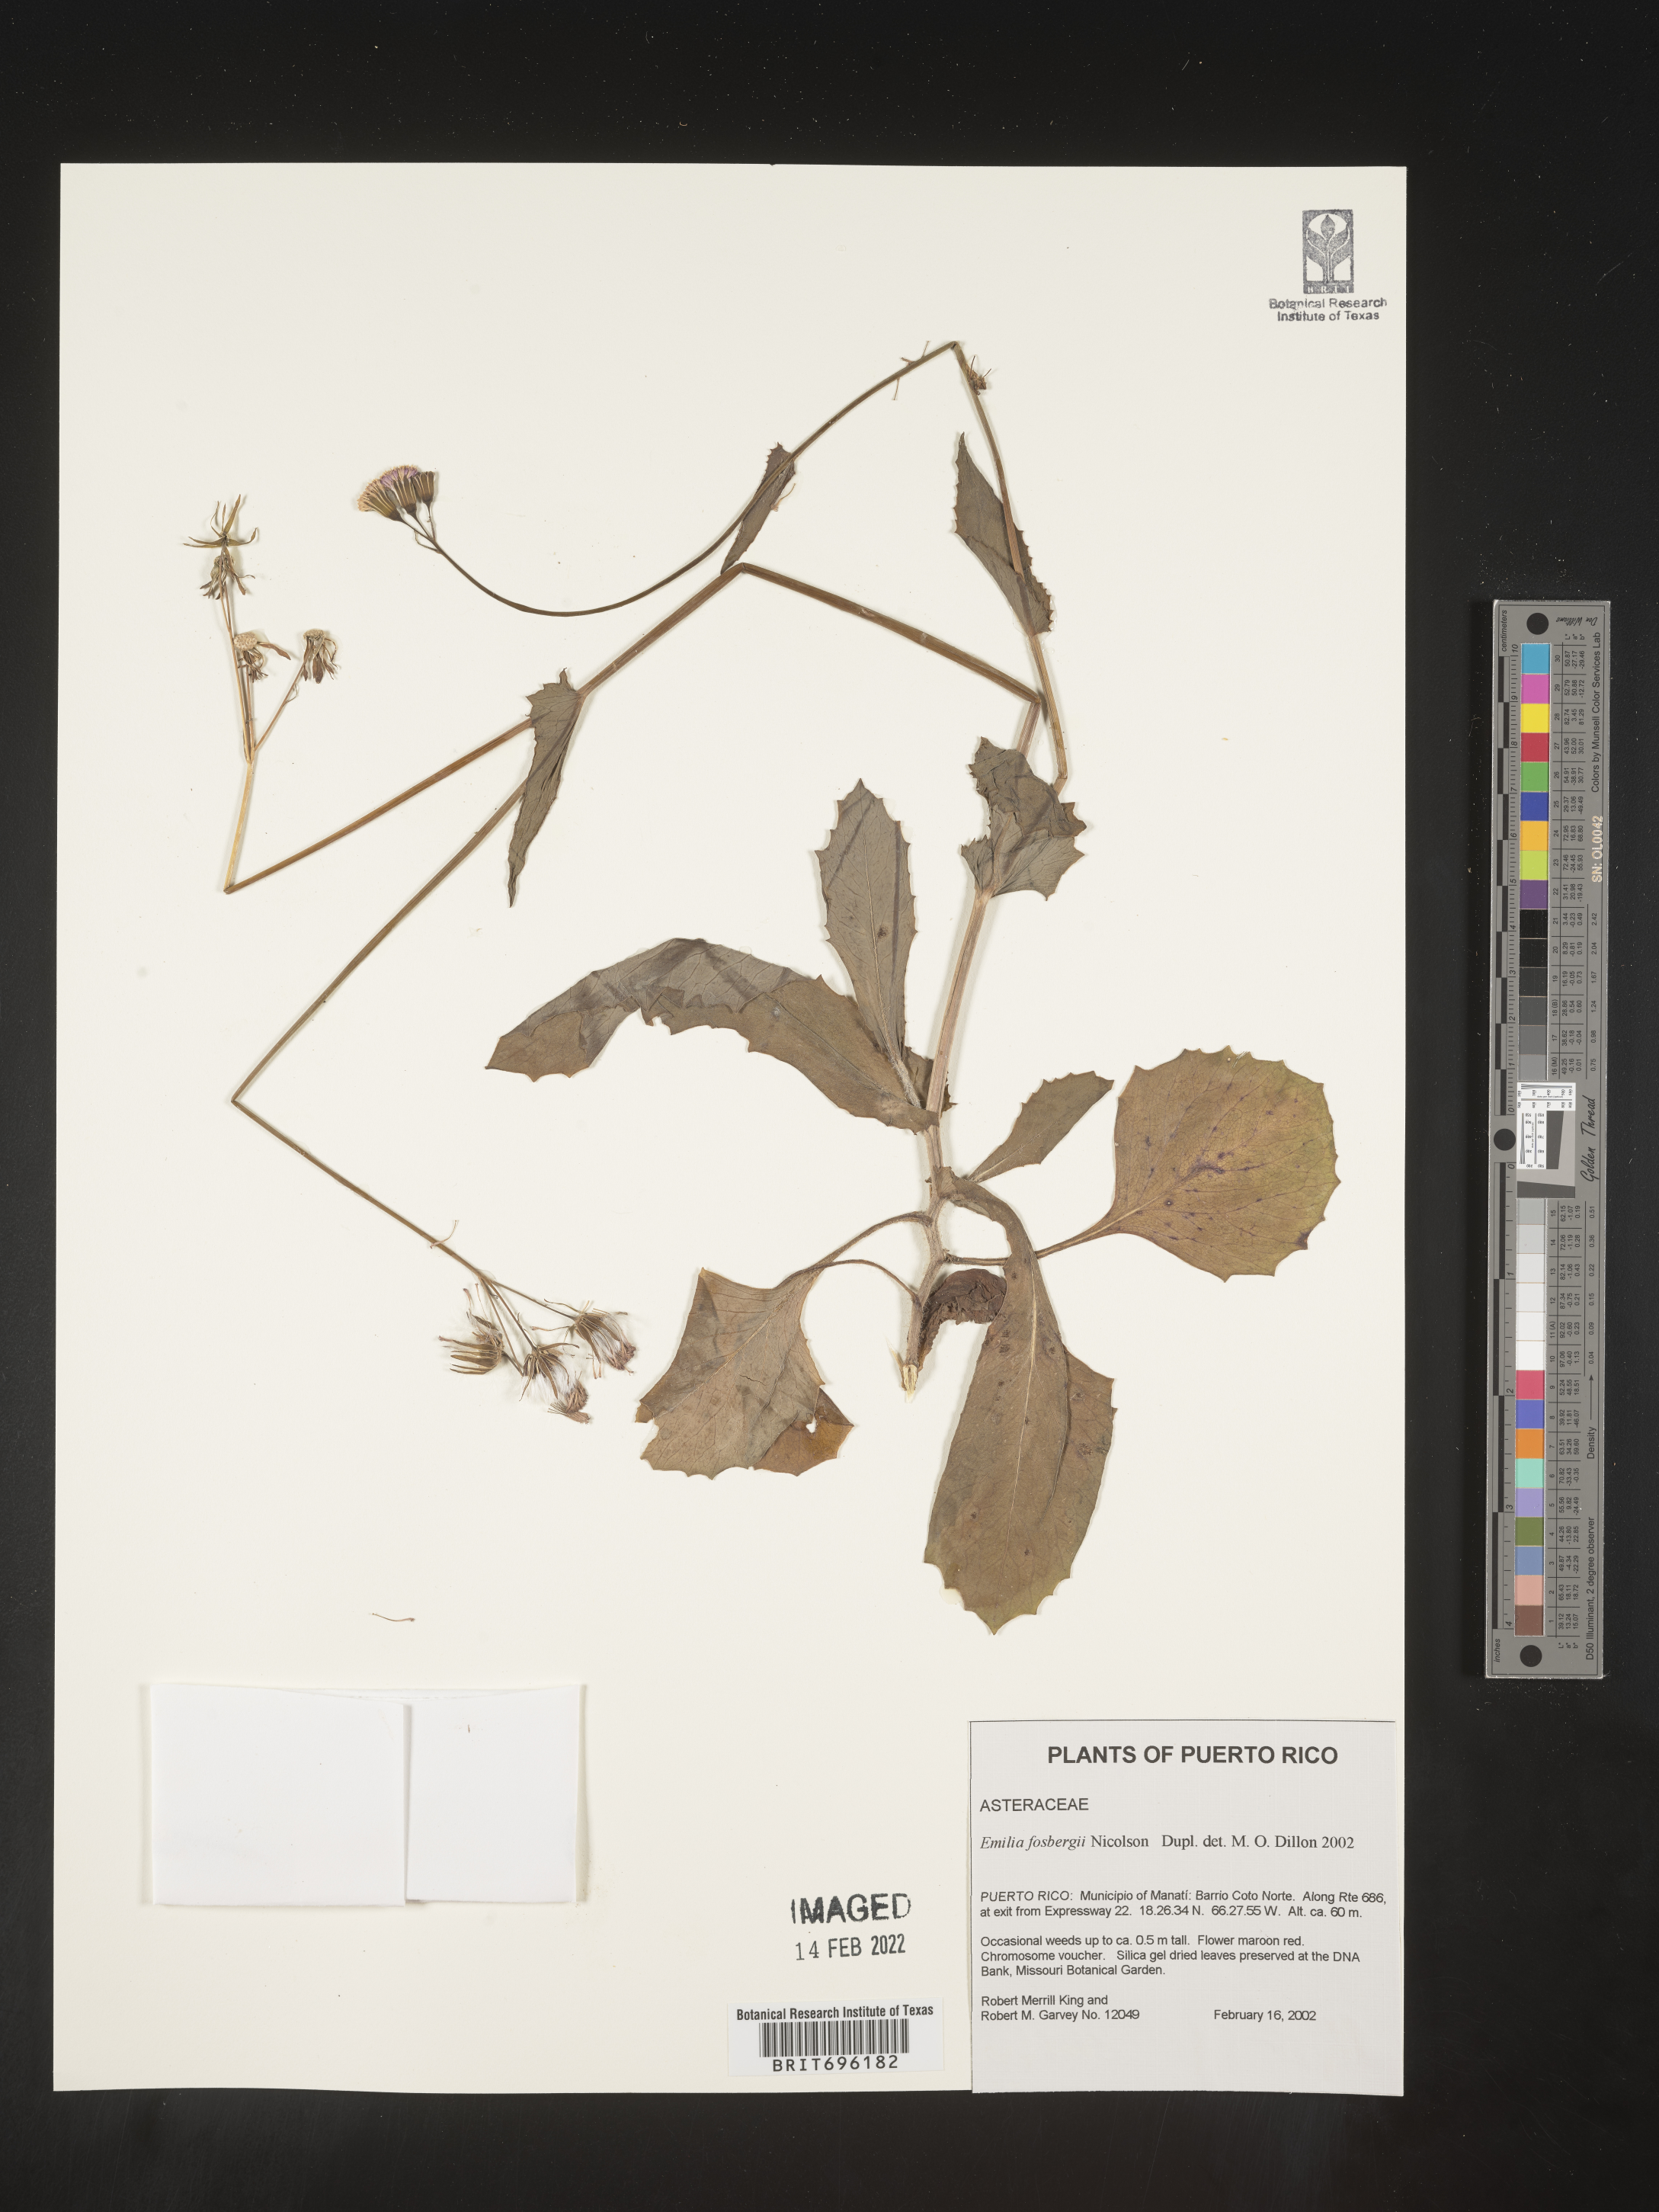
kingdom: Plantae
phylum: Tracheophyta
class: Magnoliopsida
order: Asterales
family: Asteraceae
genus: Emilia
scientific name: Emilia
